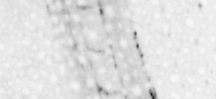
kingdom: Animalia
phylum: Chordata
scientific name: Chordata
